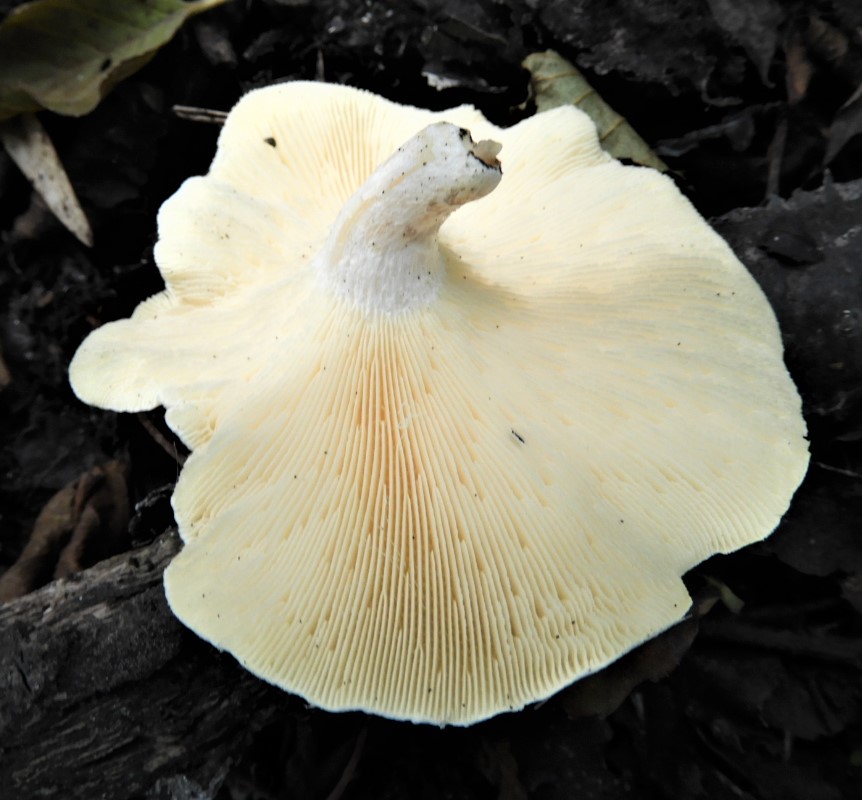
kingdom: Fungi
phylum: Basidiomycota
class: Agaricomycetes
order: Polyporales
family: Polyporaceae
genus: Lentinus
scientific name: Lentinus tigrinus
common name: tigerhat
